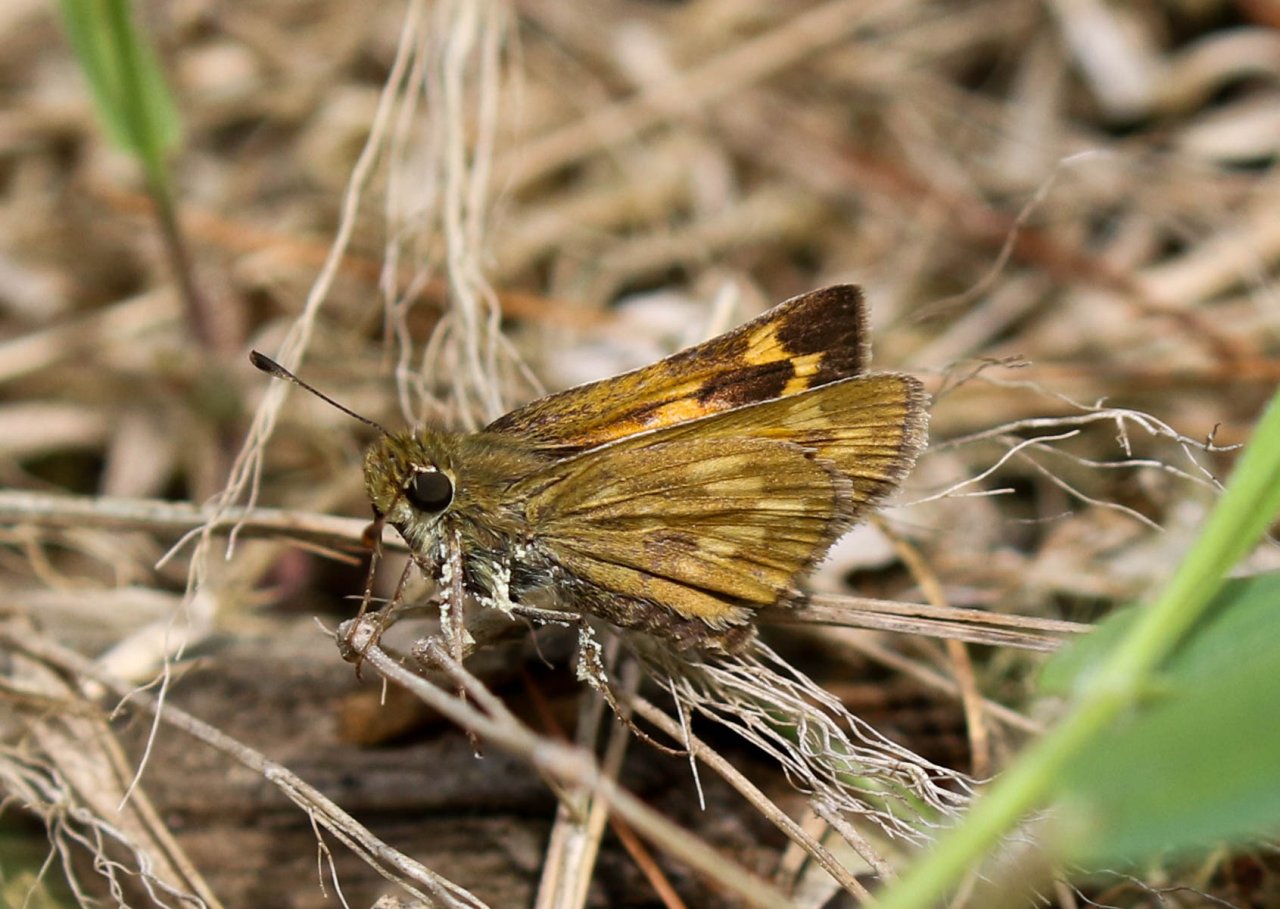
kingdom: Animalia
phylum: Arthropoda
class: Insecta
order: Lepidoptera
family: Hesperiidae
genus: Hesperia
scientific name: Hesperia sassacus
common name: Sassacus Skipper
